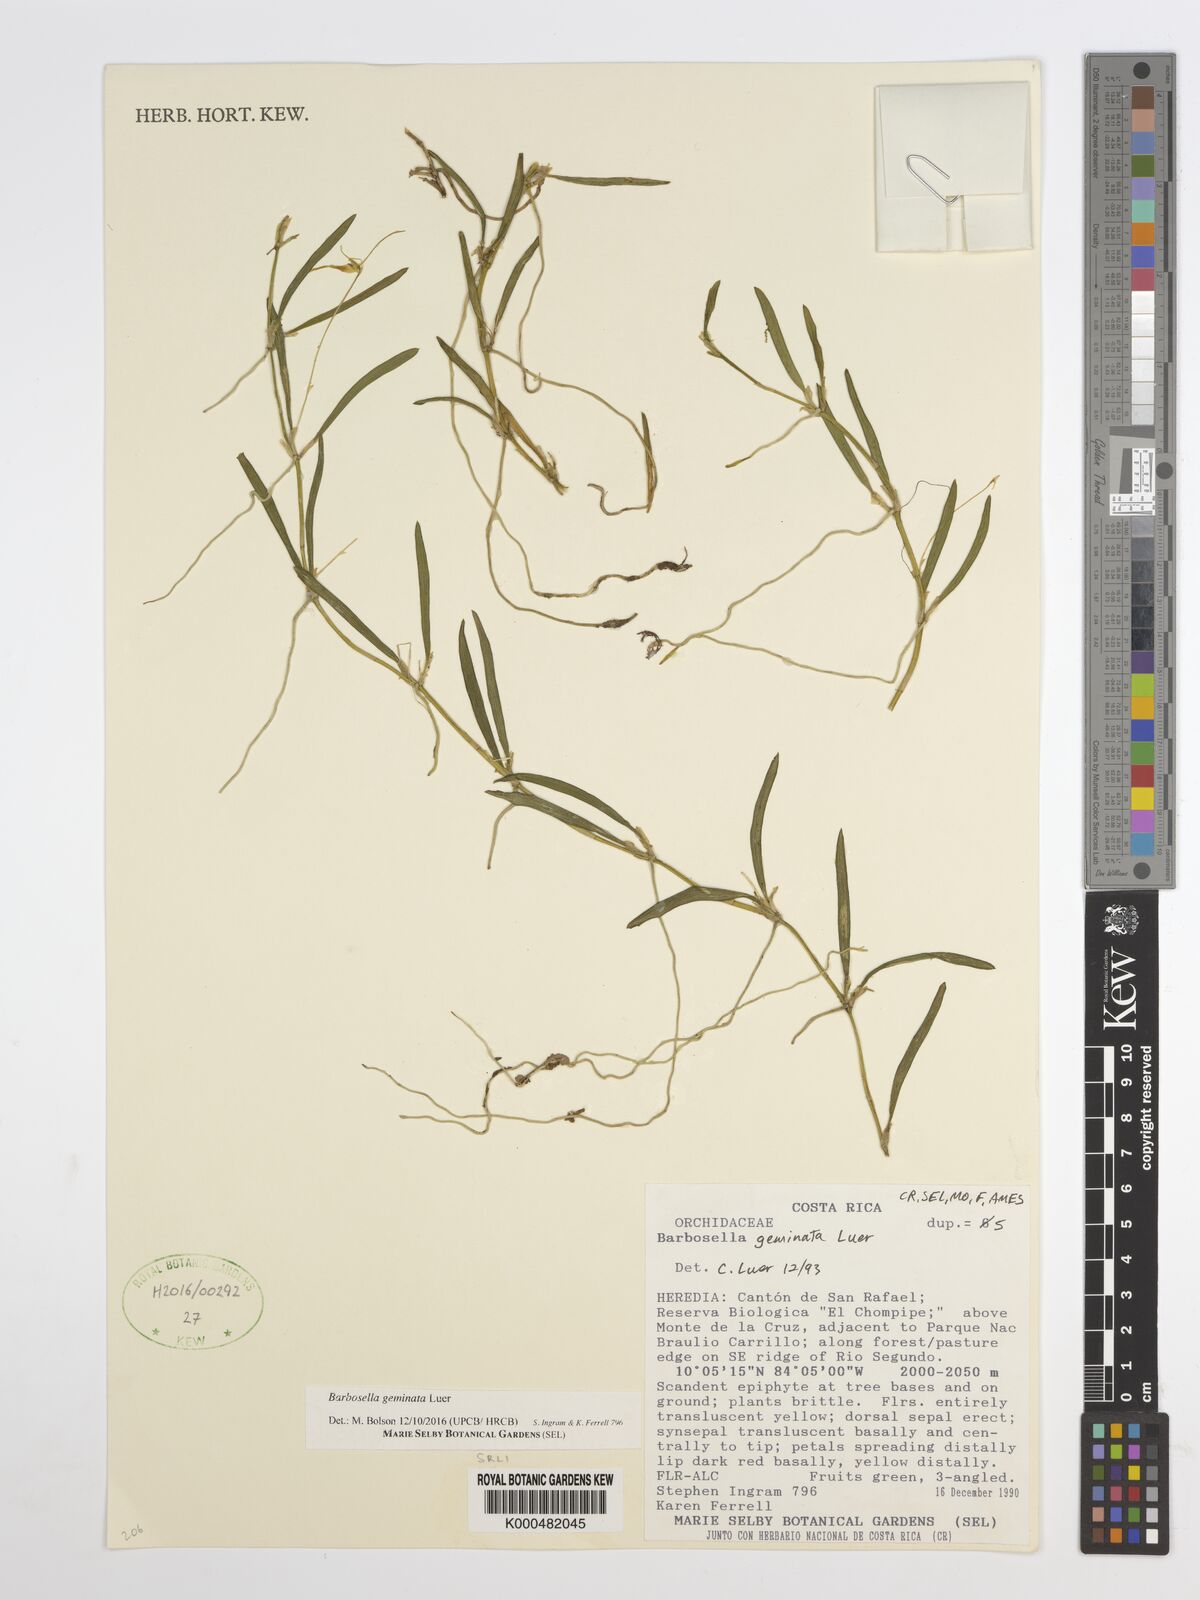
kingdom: Plantae
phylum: Tracheophyta
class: Liliopsida
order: Asparagales
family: Orchidaceae
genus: Barbosella
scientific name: Barbosella geminata
